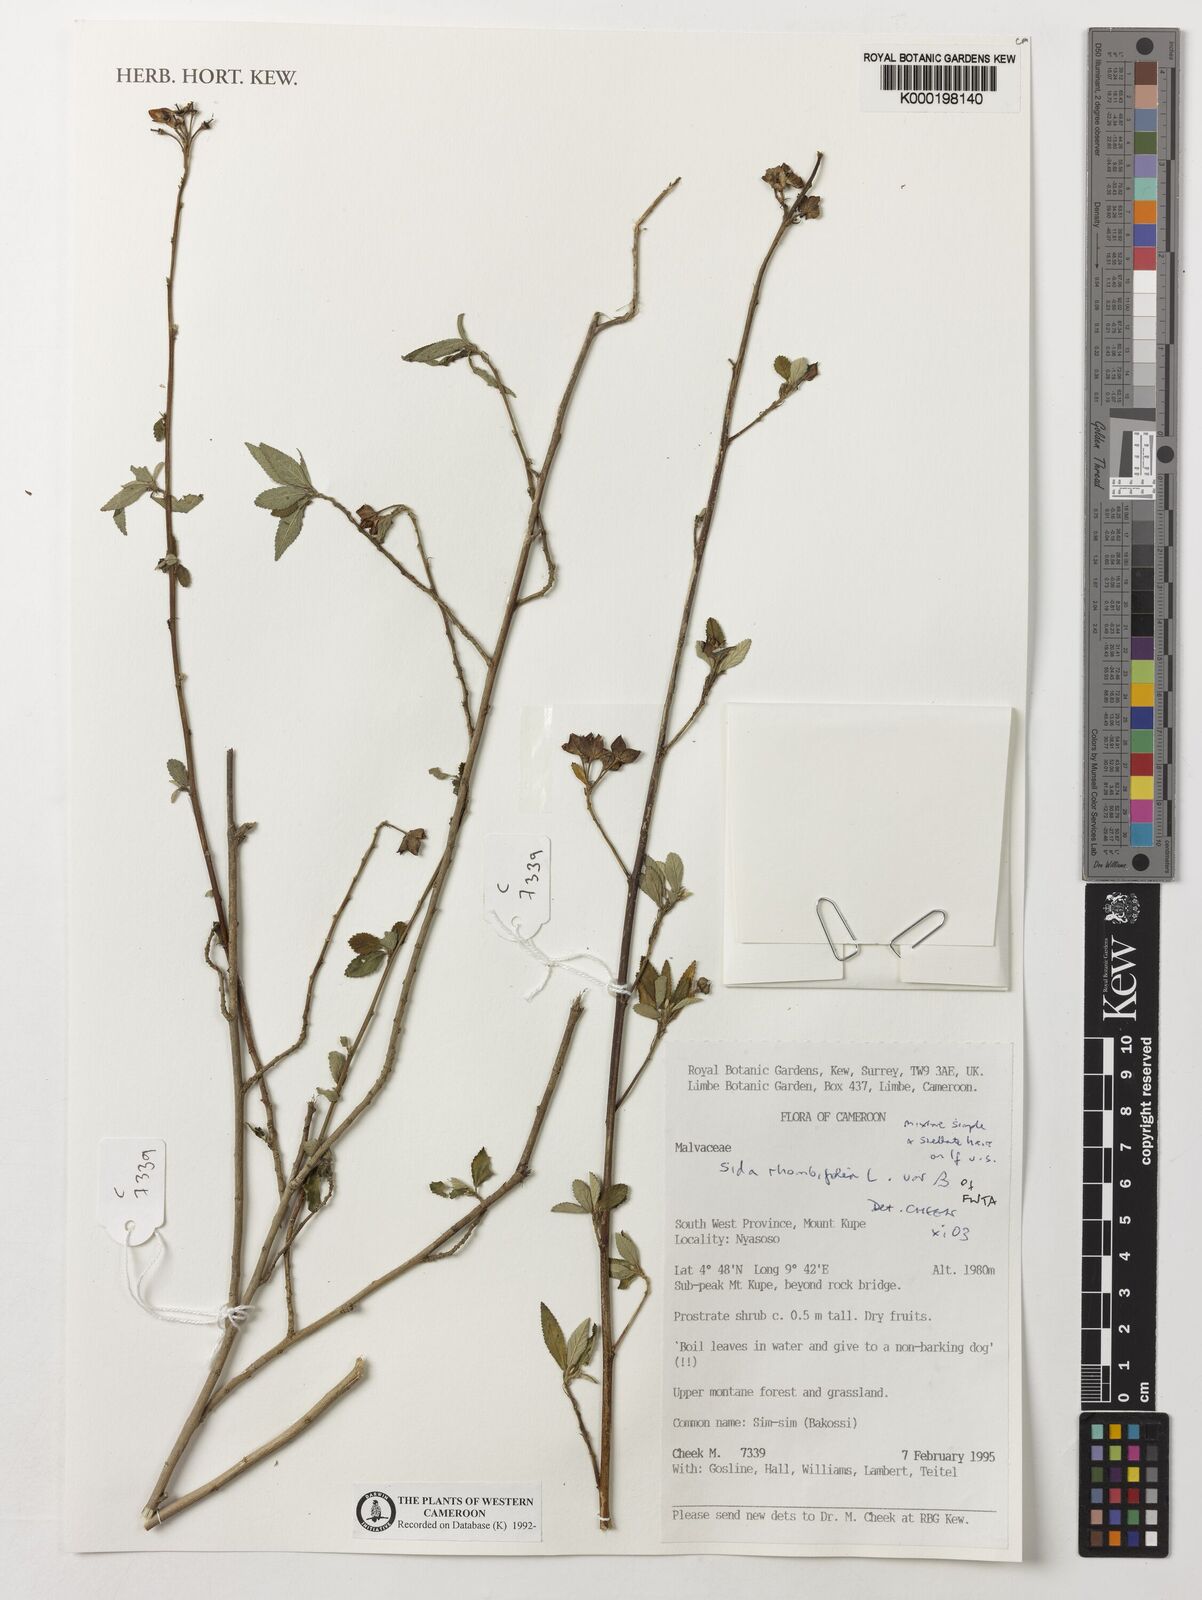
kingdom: Plantae
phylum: Tracheophyta
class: Magnoliopsida
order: Malvales
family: Malvaceae
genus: Sida
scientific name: Sida rhombifolia
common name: Queensland-hemp
